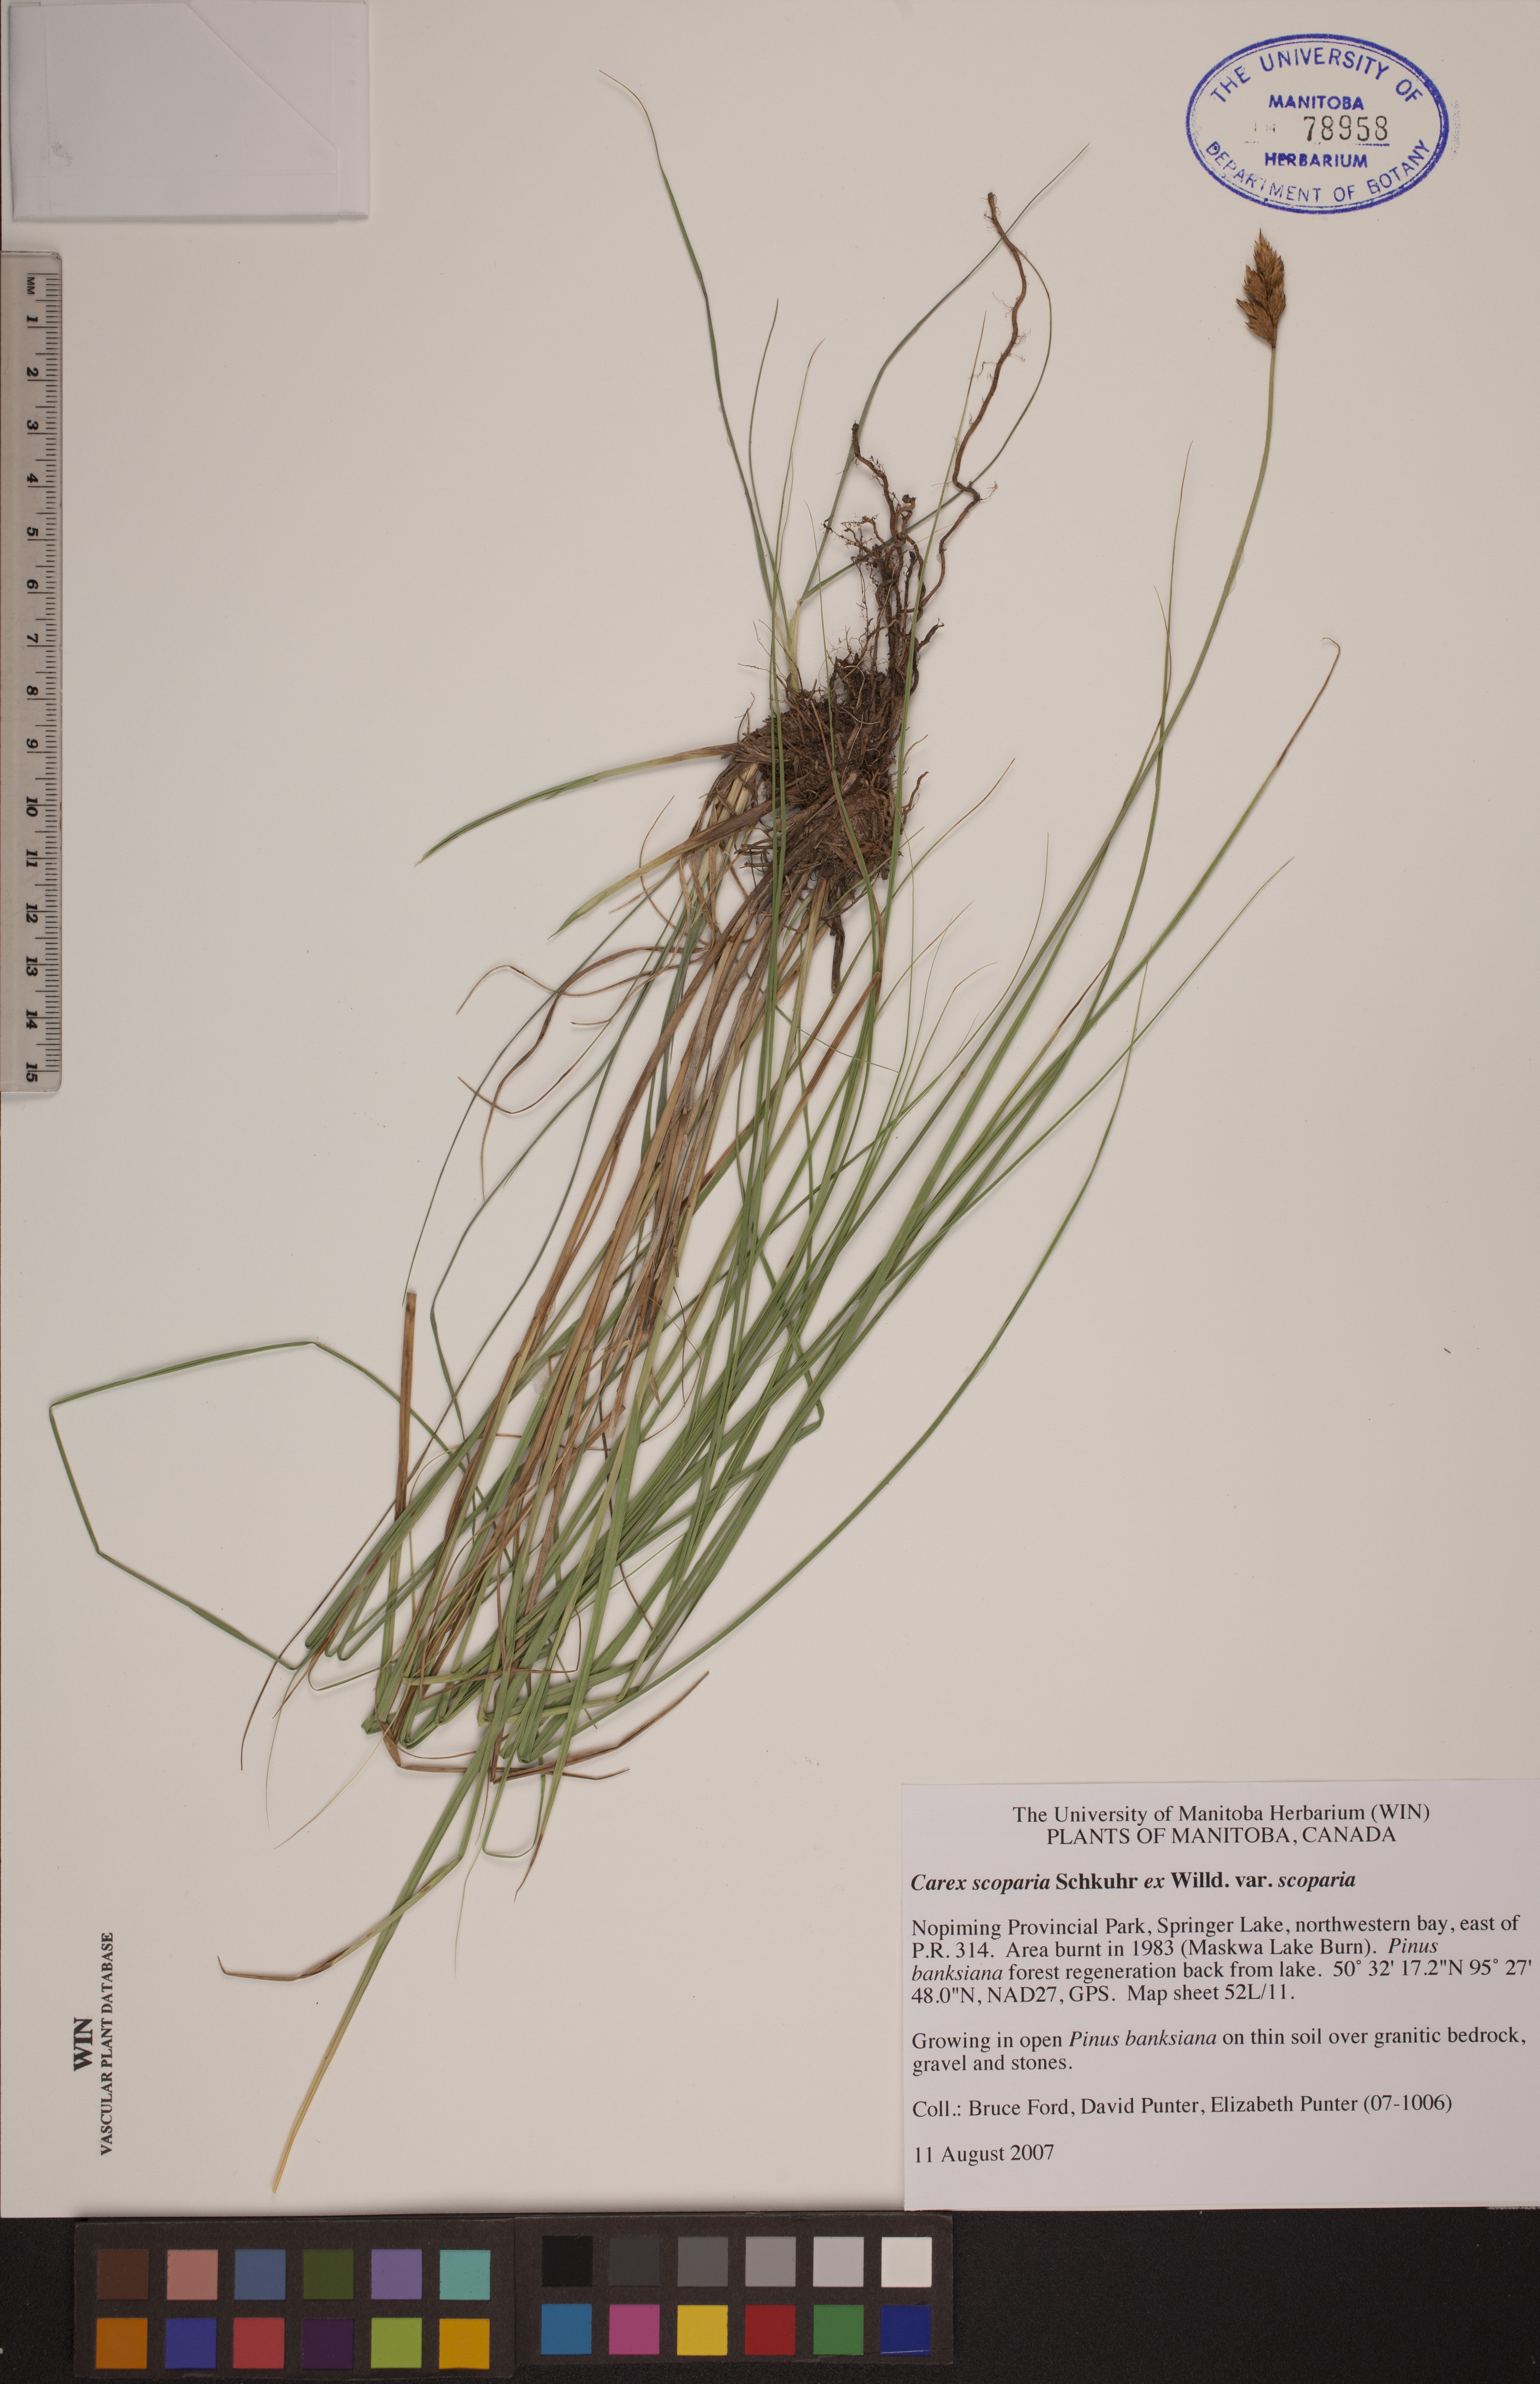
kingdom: Plantae
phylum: Tracheophyta
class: Liliopsida
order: Poales
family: Cyperaceae
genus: Carex
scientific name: Carex scoparia
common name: Broom sedge
